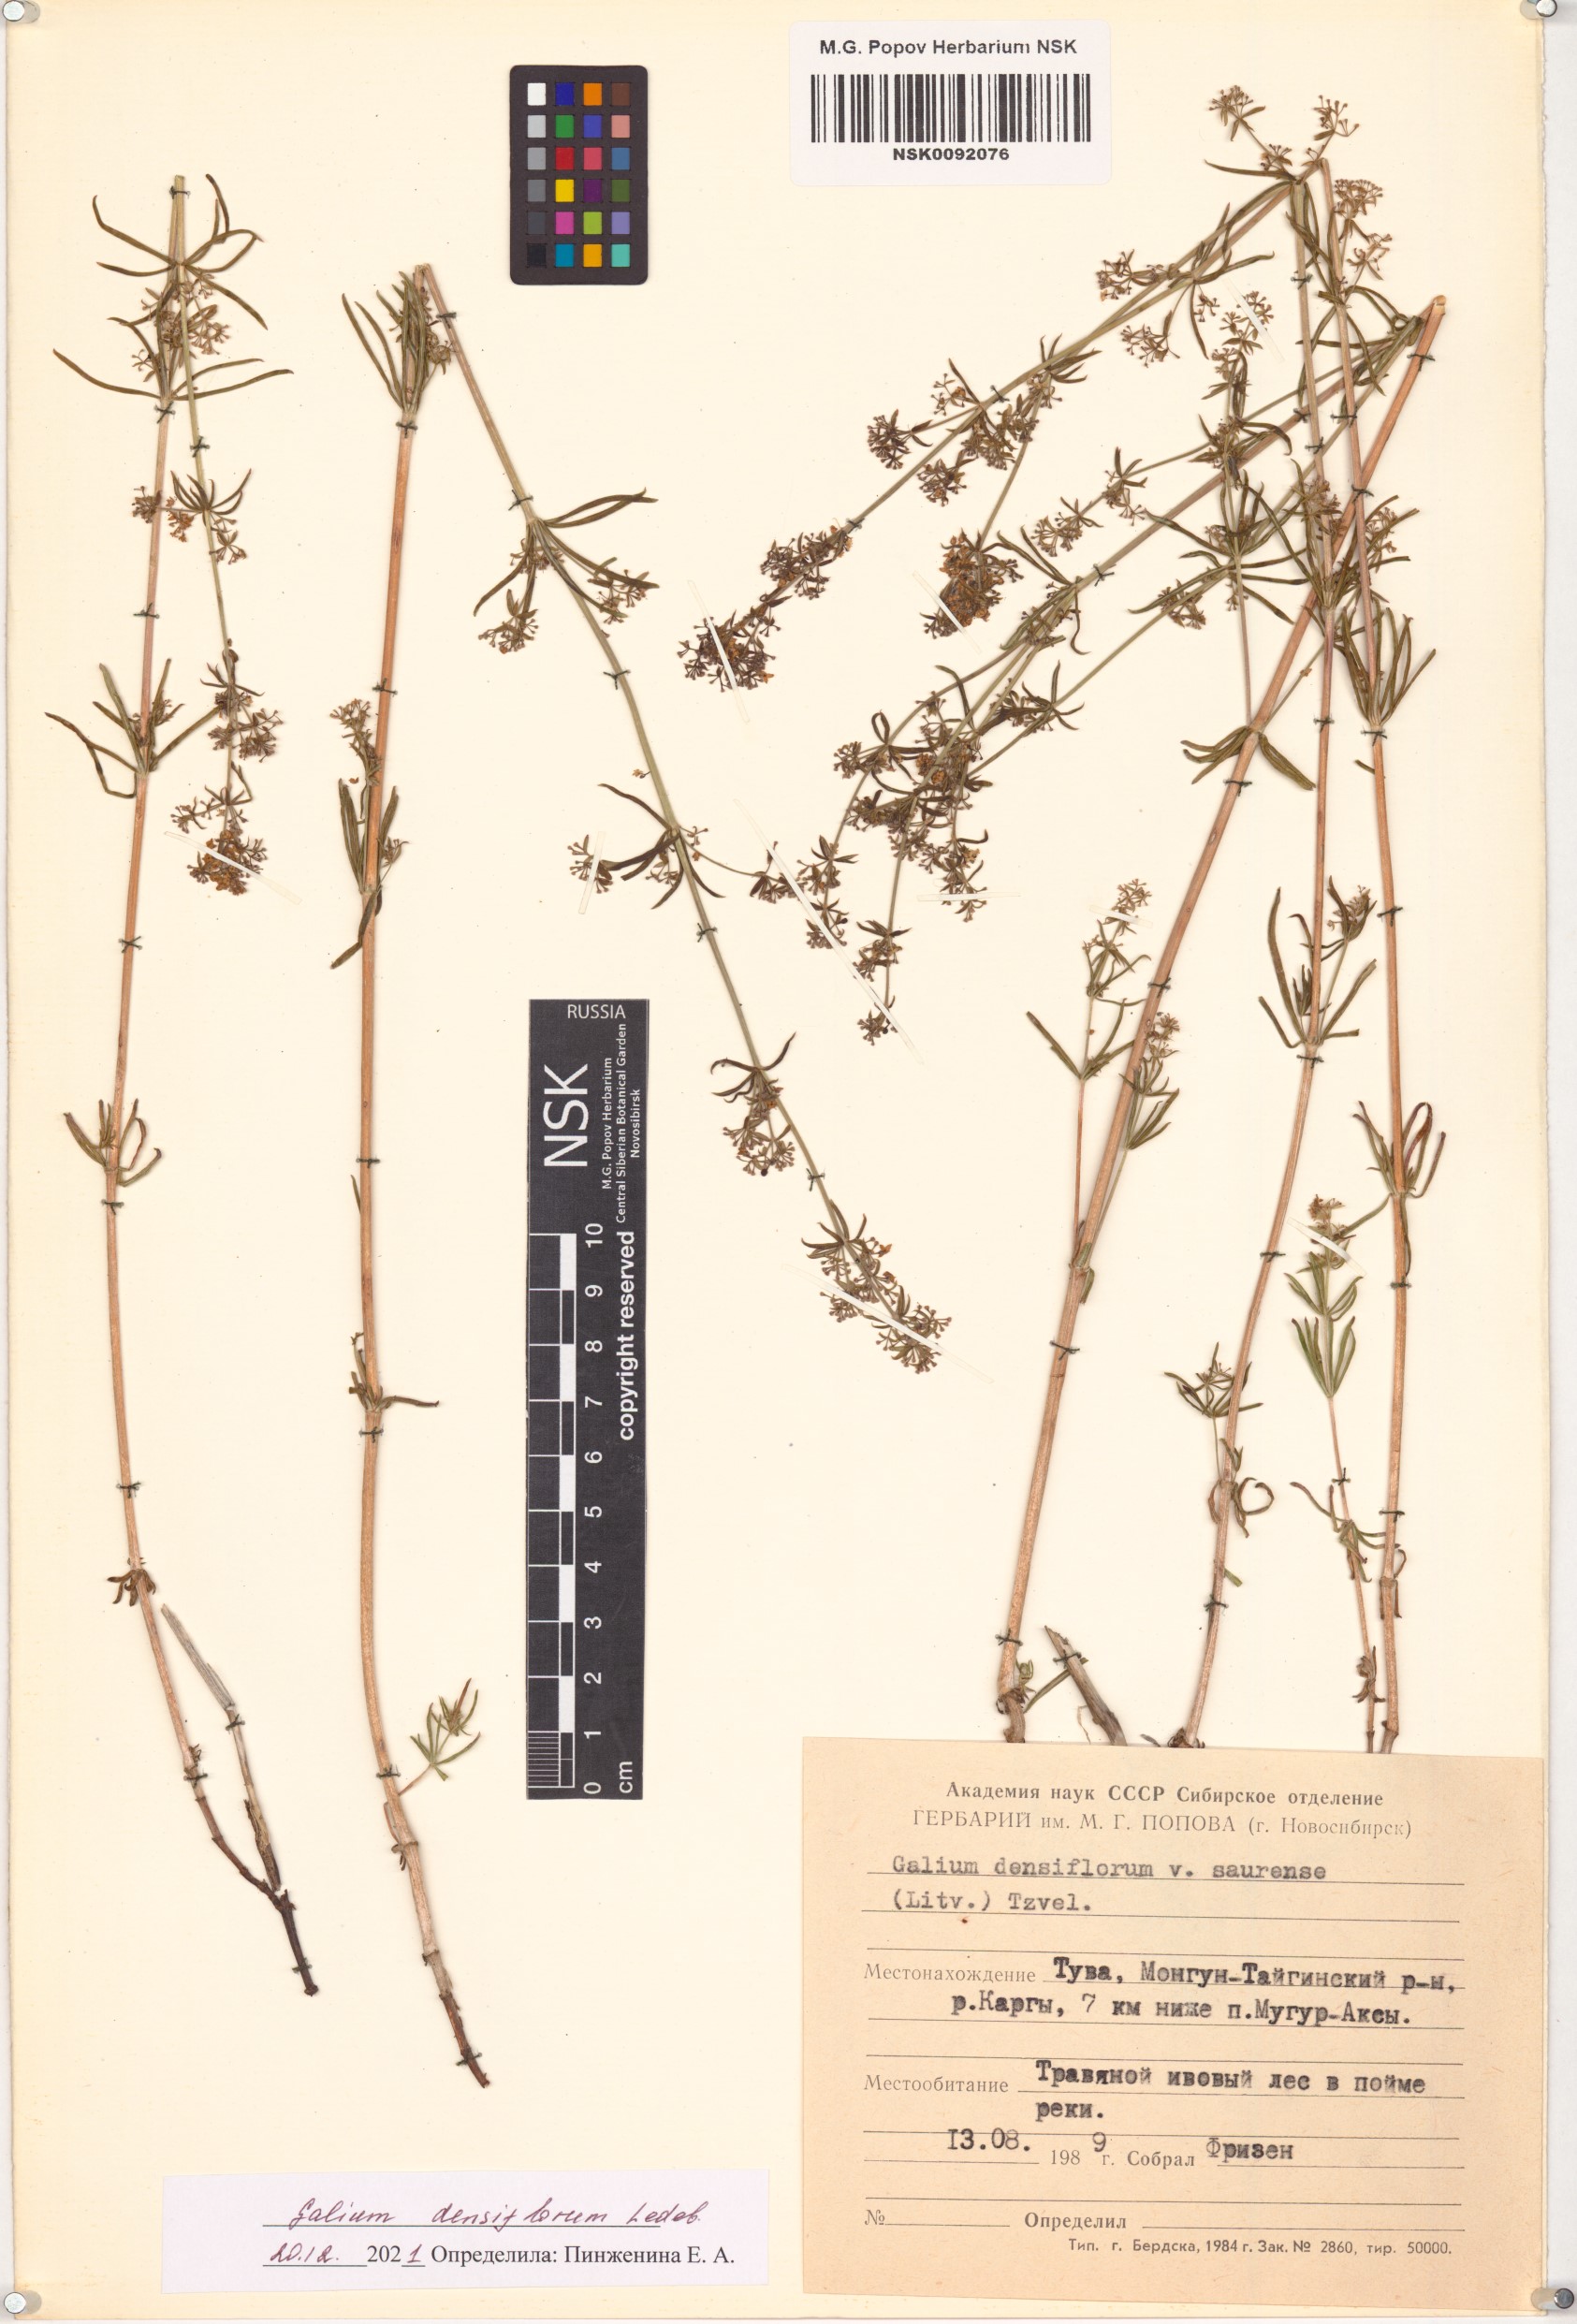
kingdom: Plantae
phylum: Tracheophyta
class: Magnoliopsida
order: Gentianales
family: Rubiaceae
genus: Galium
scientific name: Galium densiflorum
